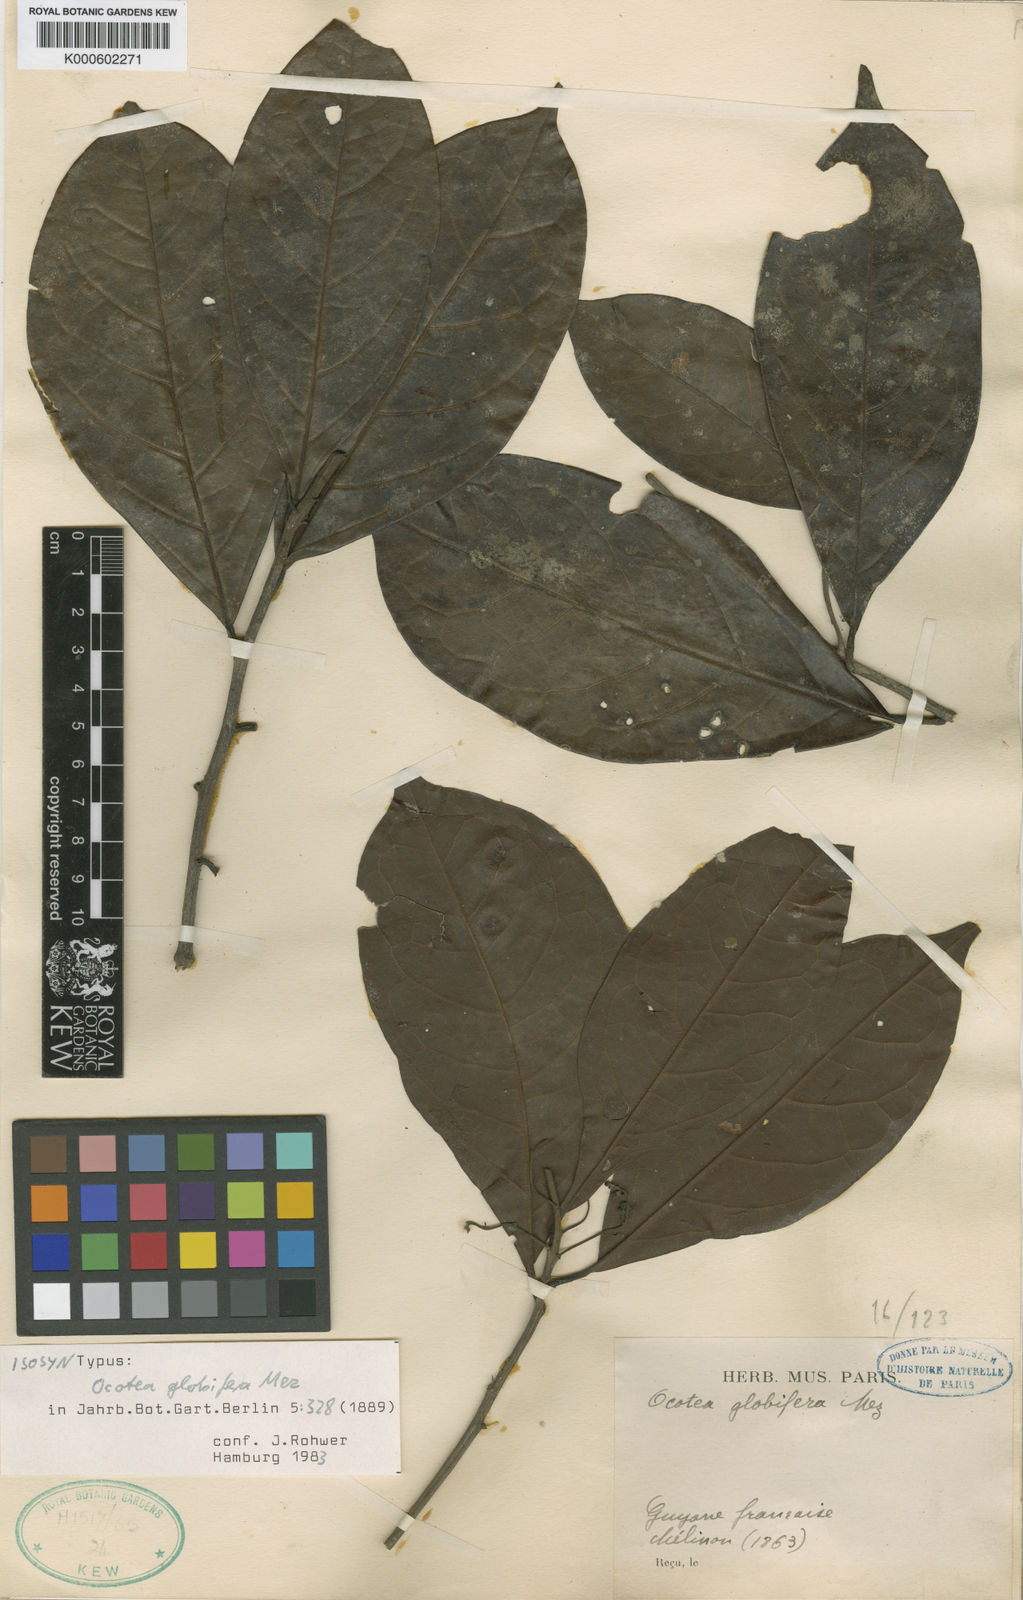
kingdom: Plantae
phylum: Tracheophyta
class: Magnoliopsida
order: Laurales
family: Lauraceae
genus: Ocotea
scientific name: Ocotea splendens
